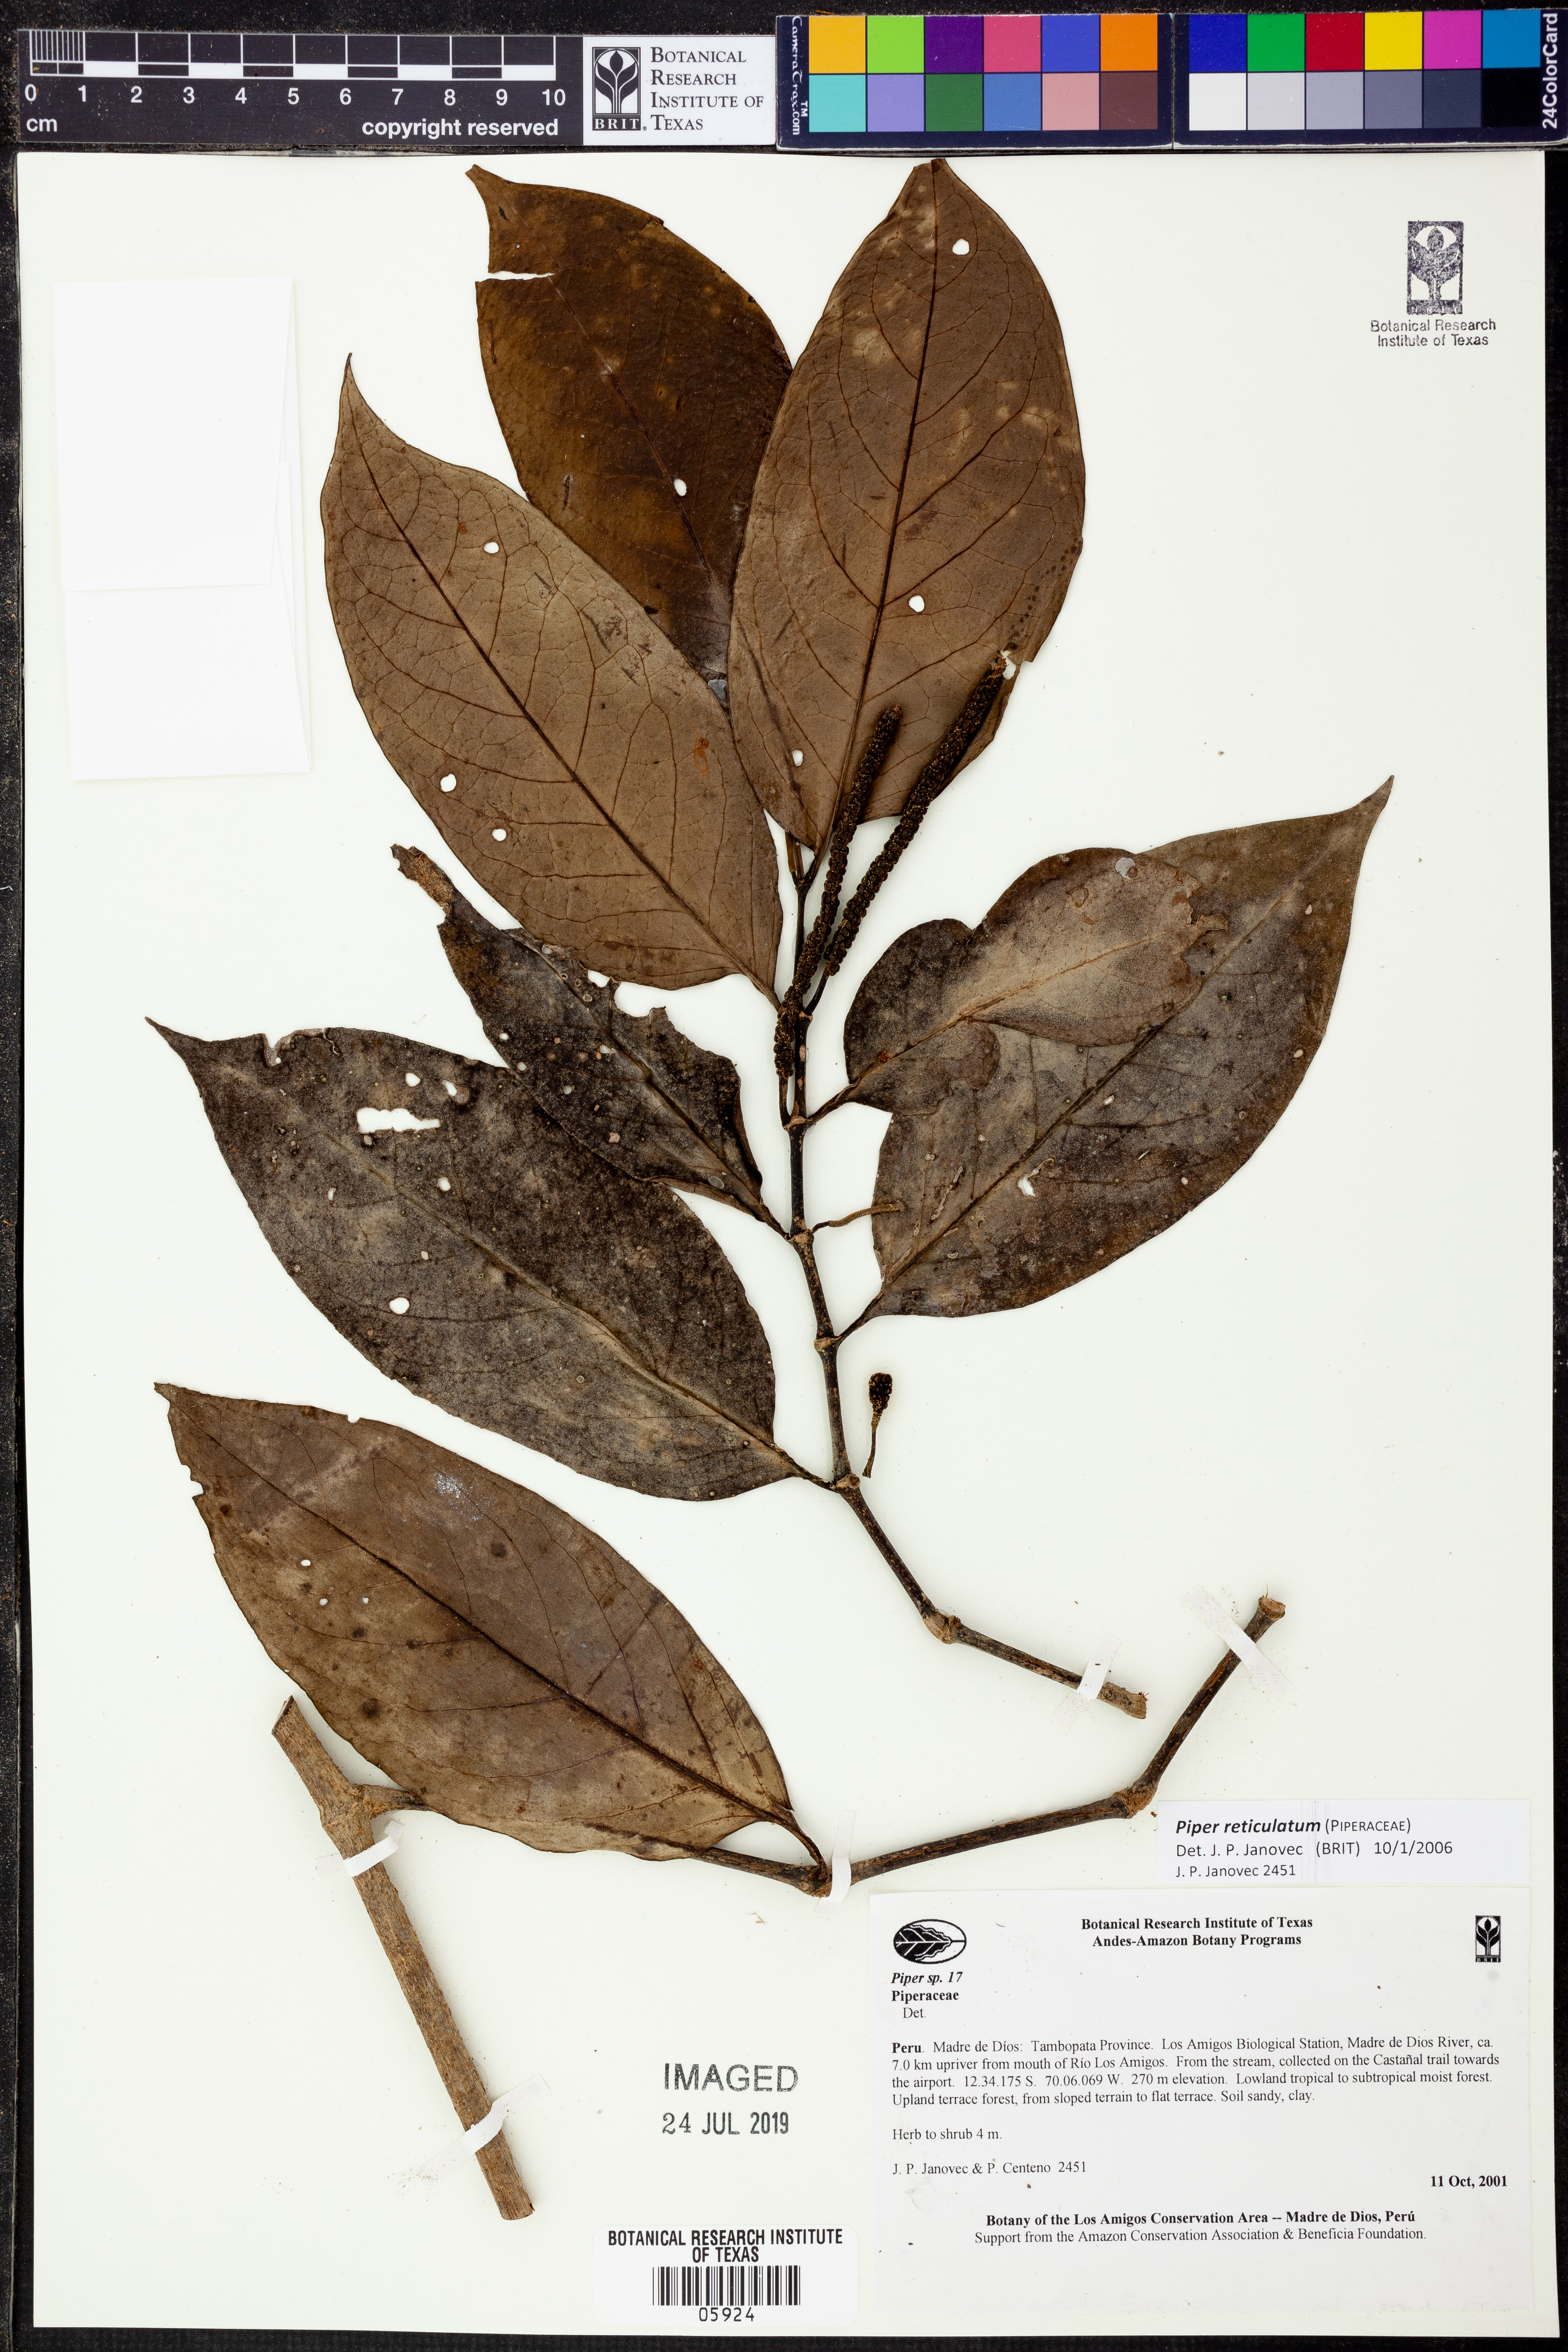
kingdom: Plantae
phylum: Tracheophyta
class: Magnoliopsida
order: Piperales
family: Piperaceae
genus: Piper
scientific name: Piper reticulatum
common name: Wild cane
